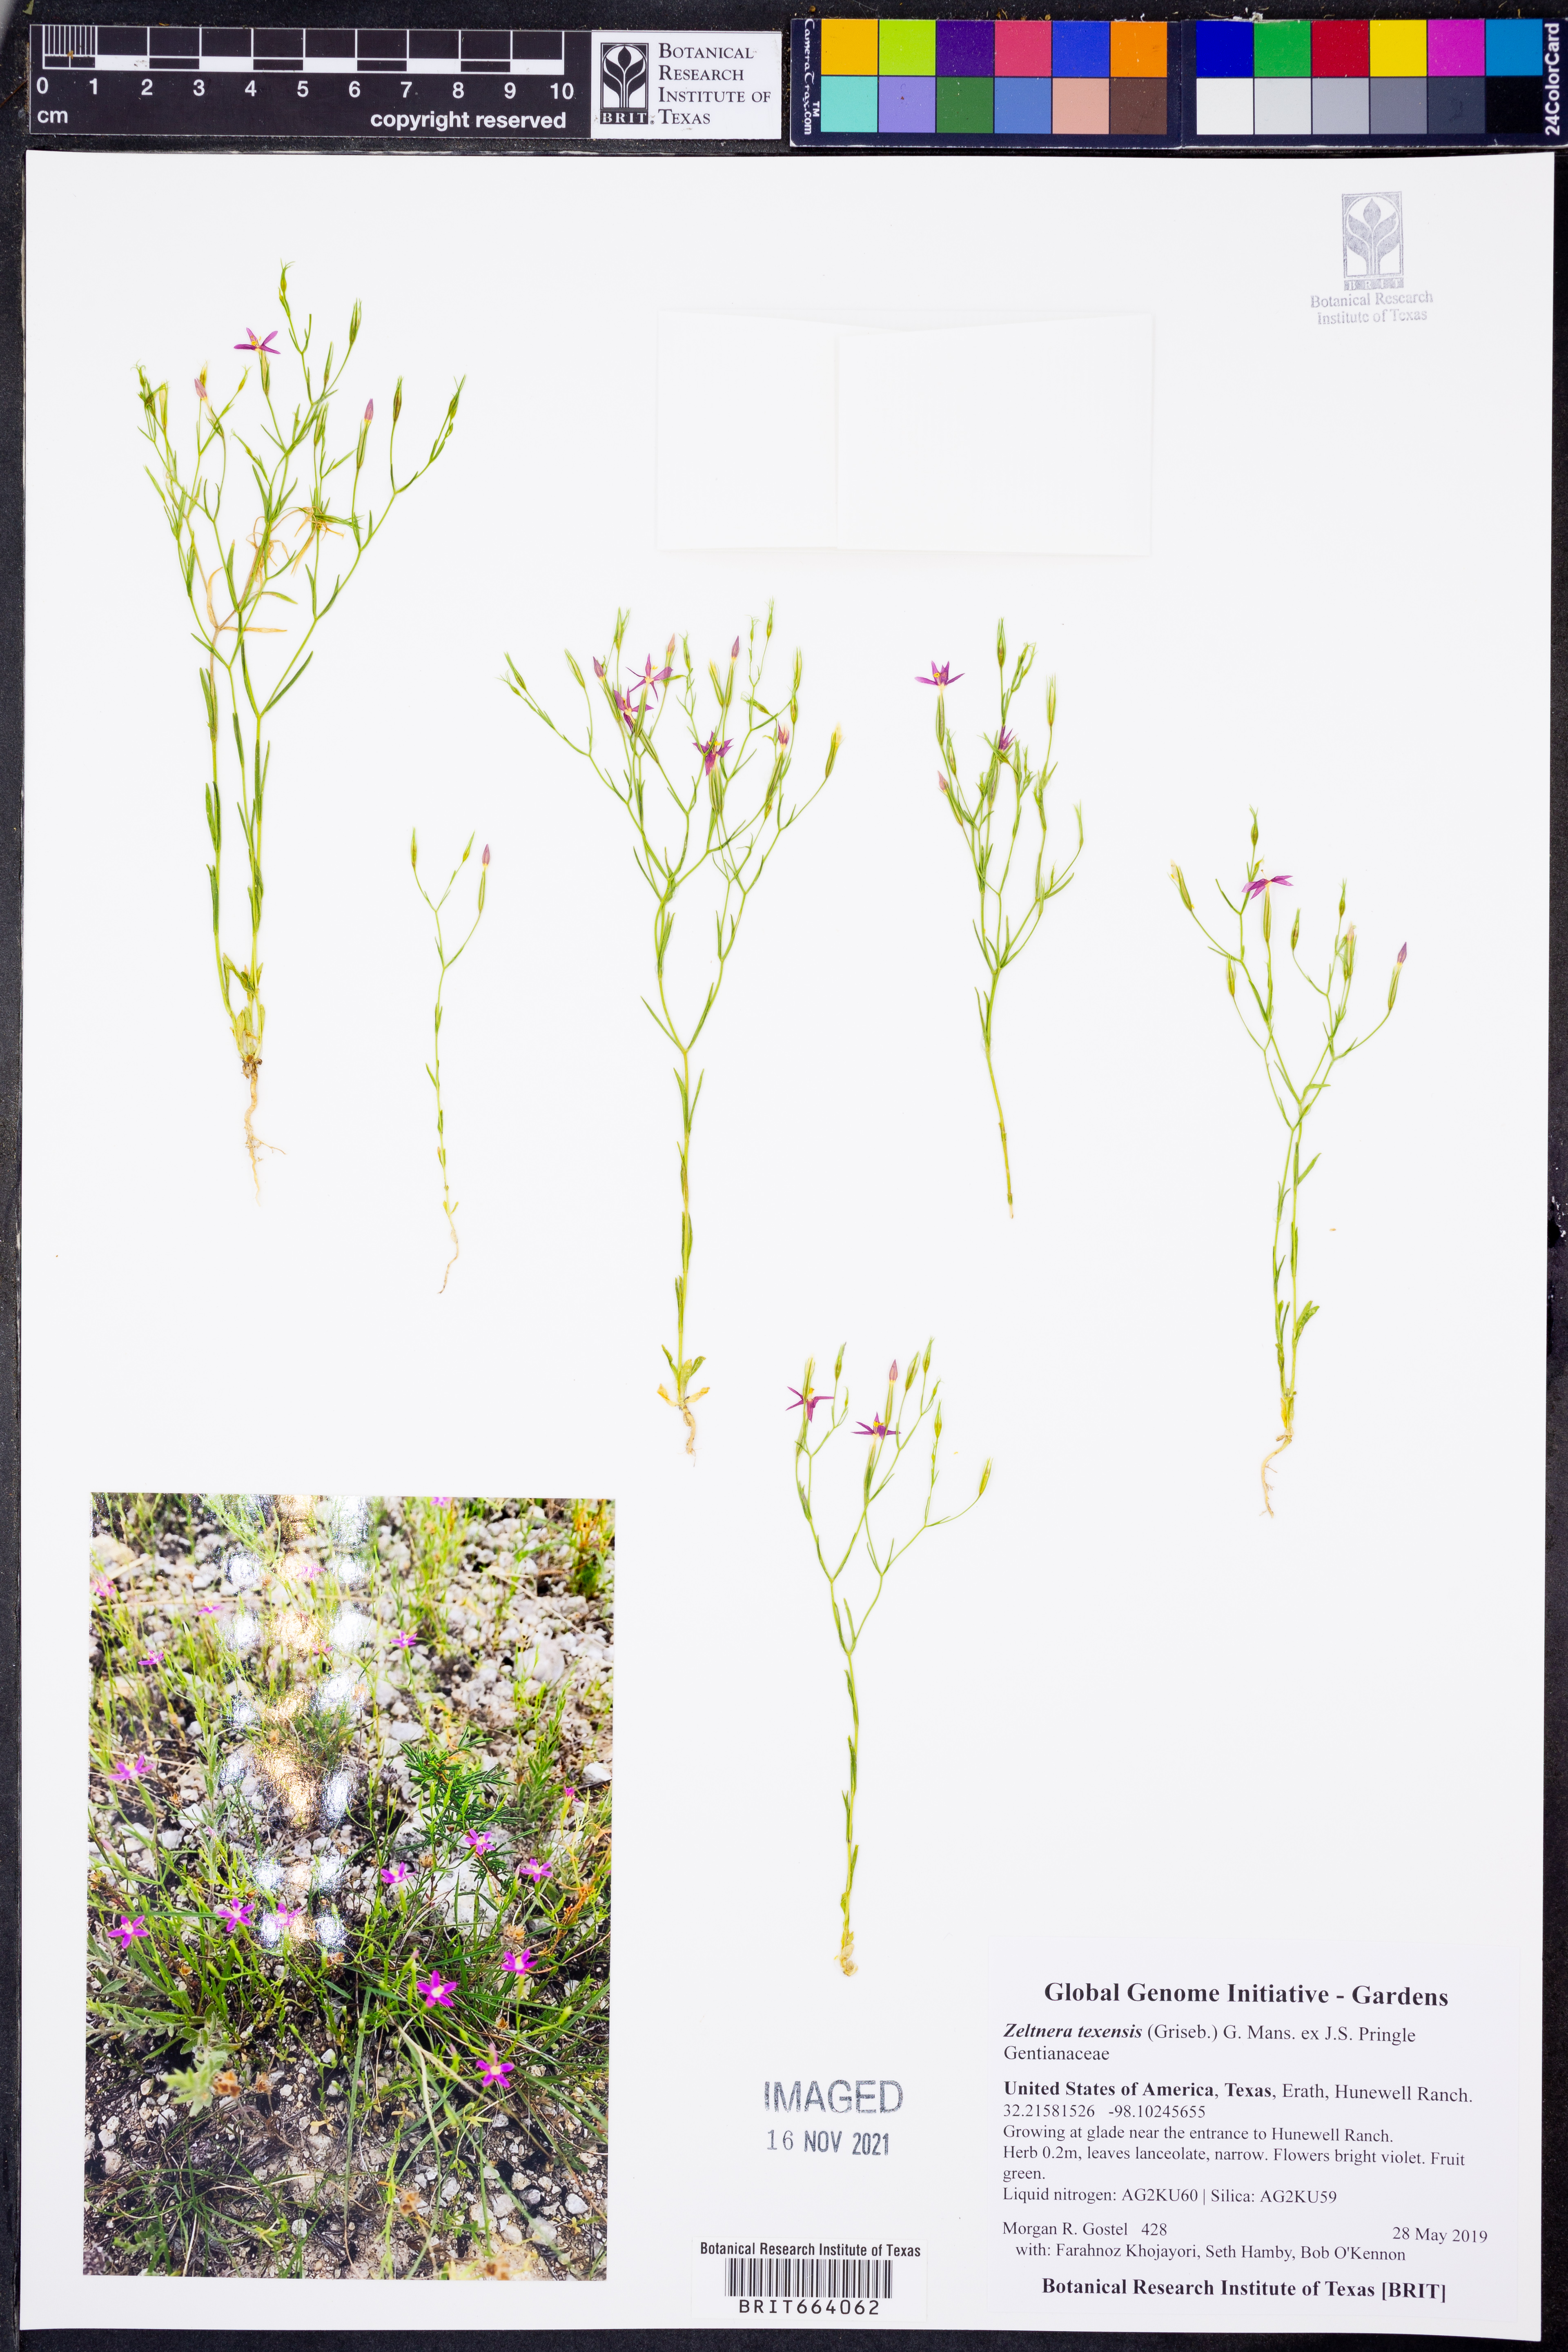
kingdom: Plantae
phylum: Tracheophyta
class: Magnoliopsida
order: Gentianales
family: Gentianaceae
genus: Zeltnera
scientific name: Zeltnera texensis
